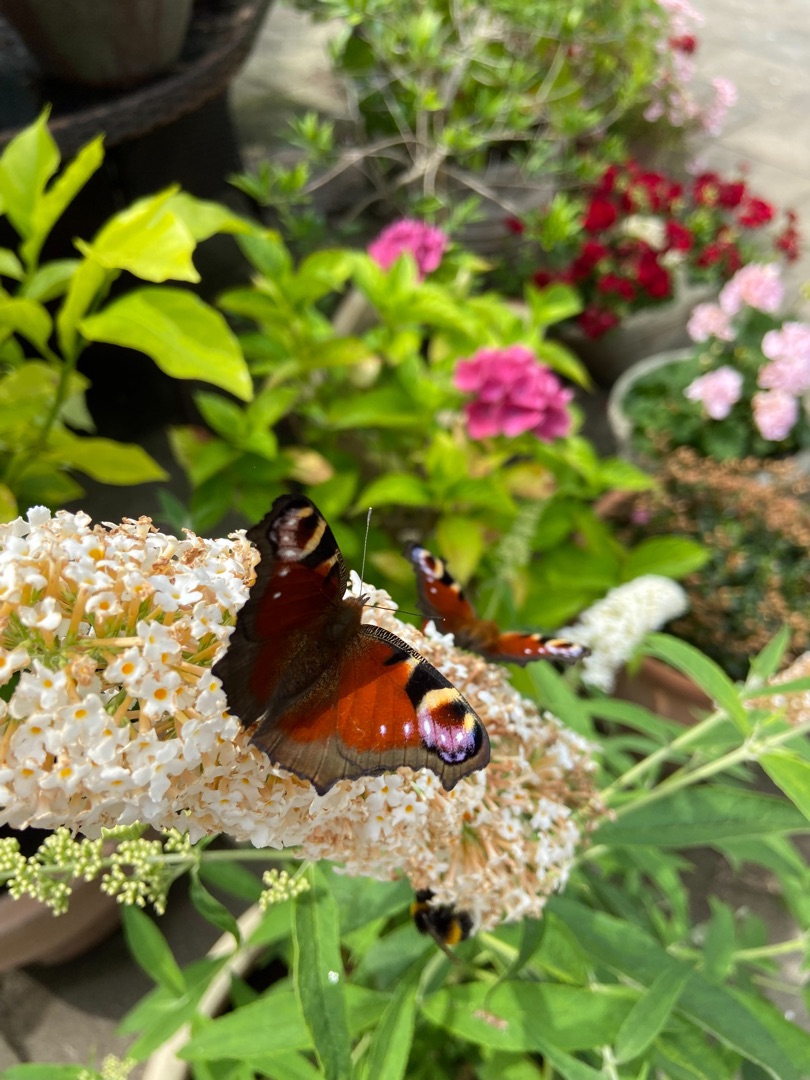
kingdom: Animalia
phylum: Arthropoda
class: Insecta
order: Lepidoptera
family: Nymphalidae
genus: Aglais
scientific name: Aglais io
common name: Dagpåfugleøje
